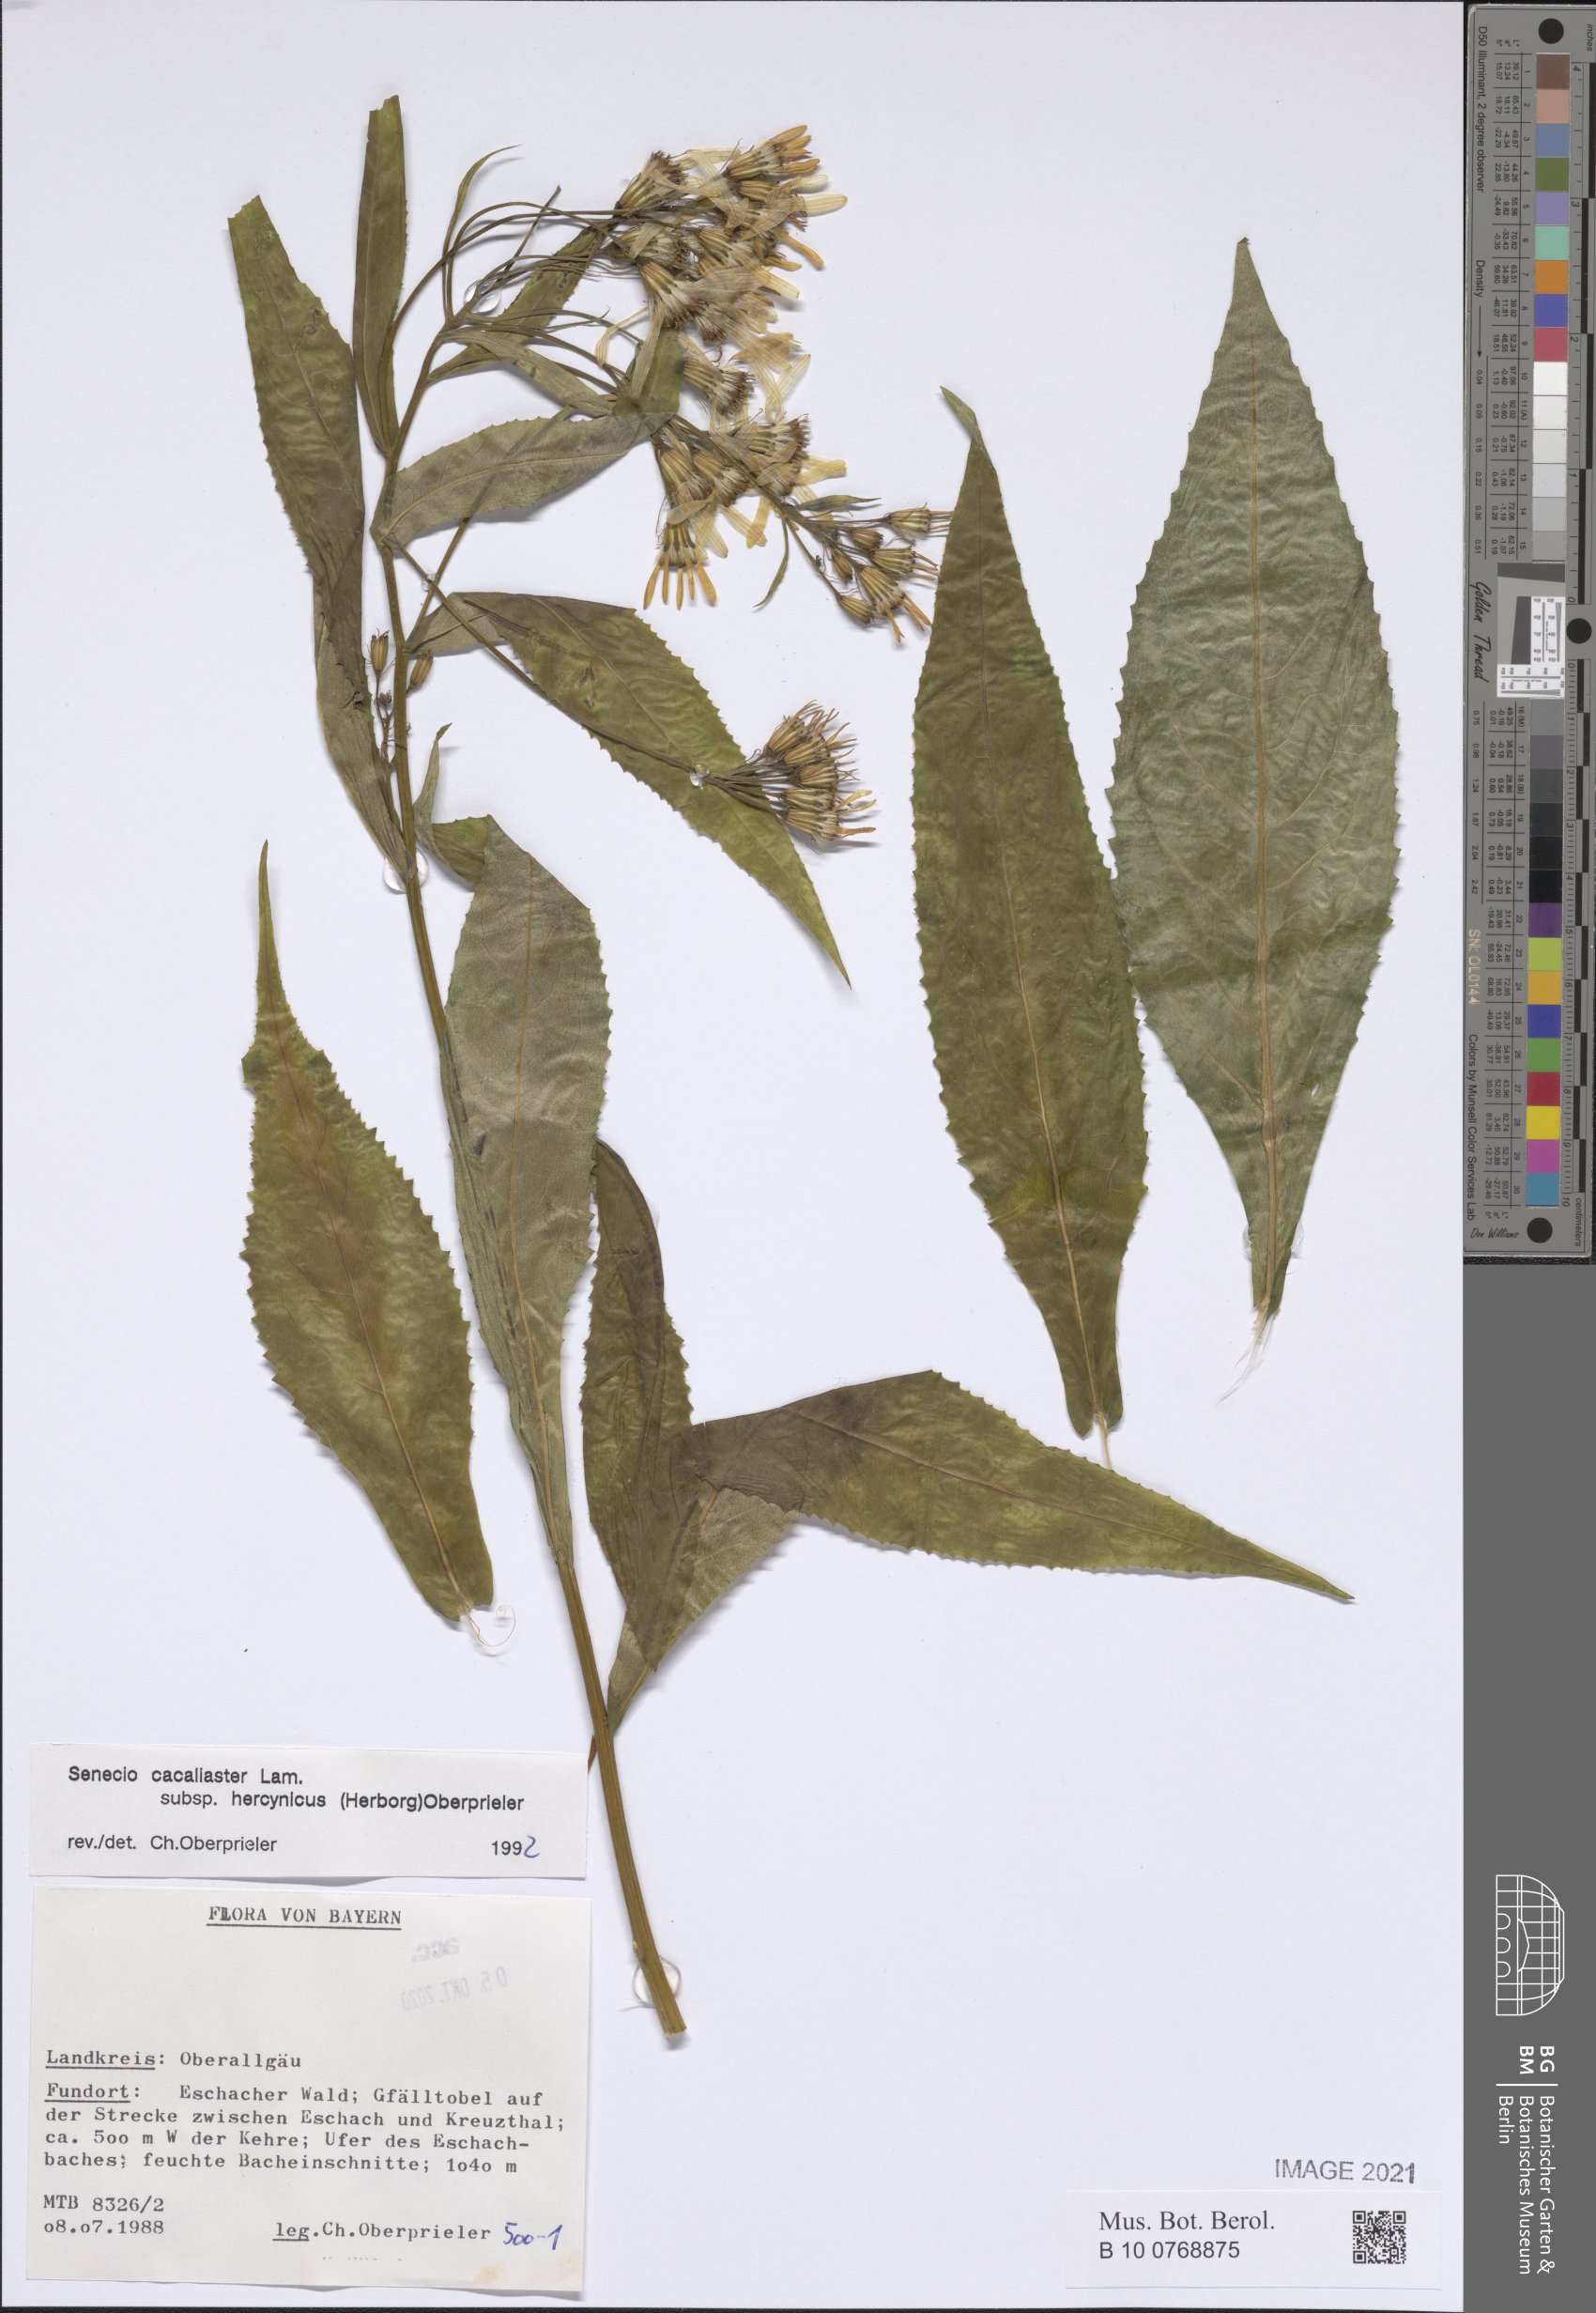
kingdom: Plantae
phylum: Tracheophyta
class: Magnoliopsida
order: Asterales
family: Asteraceae
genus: Senecio
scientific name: Senecio hercynicus
